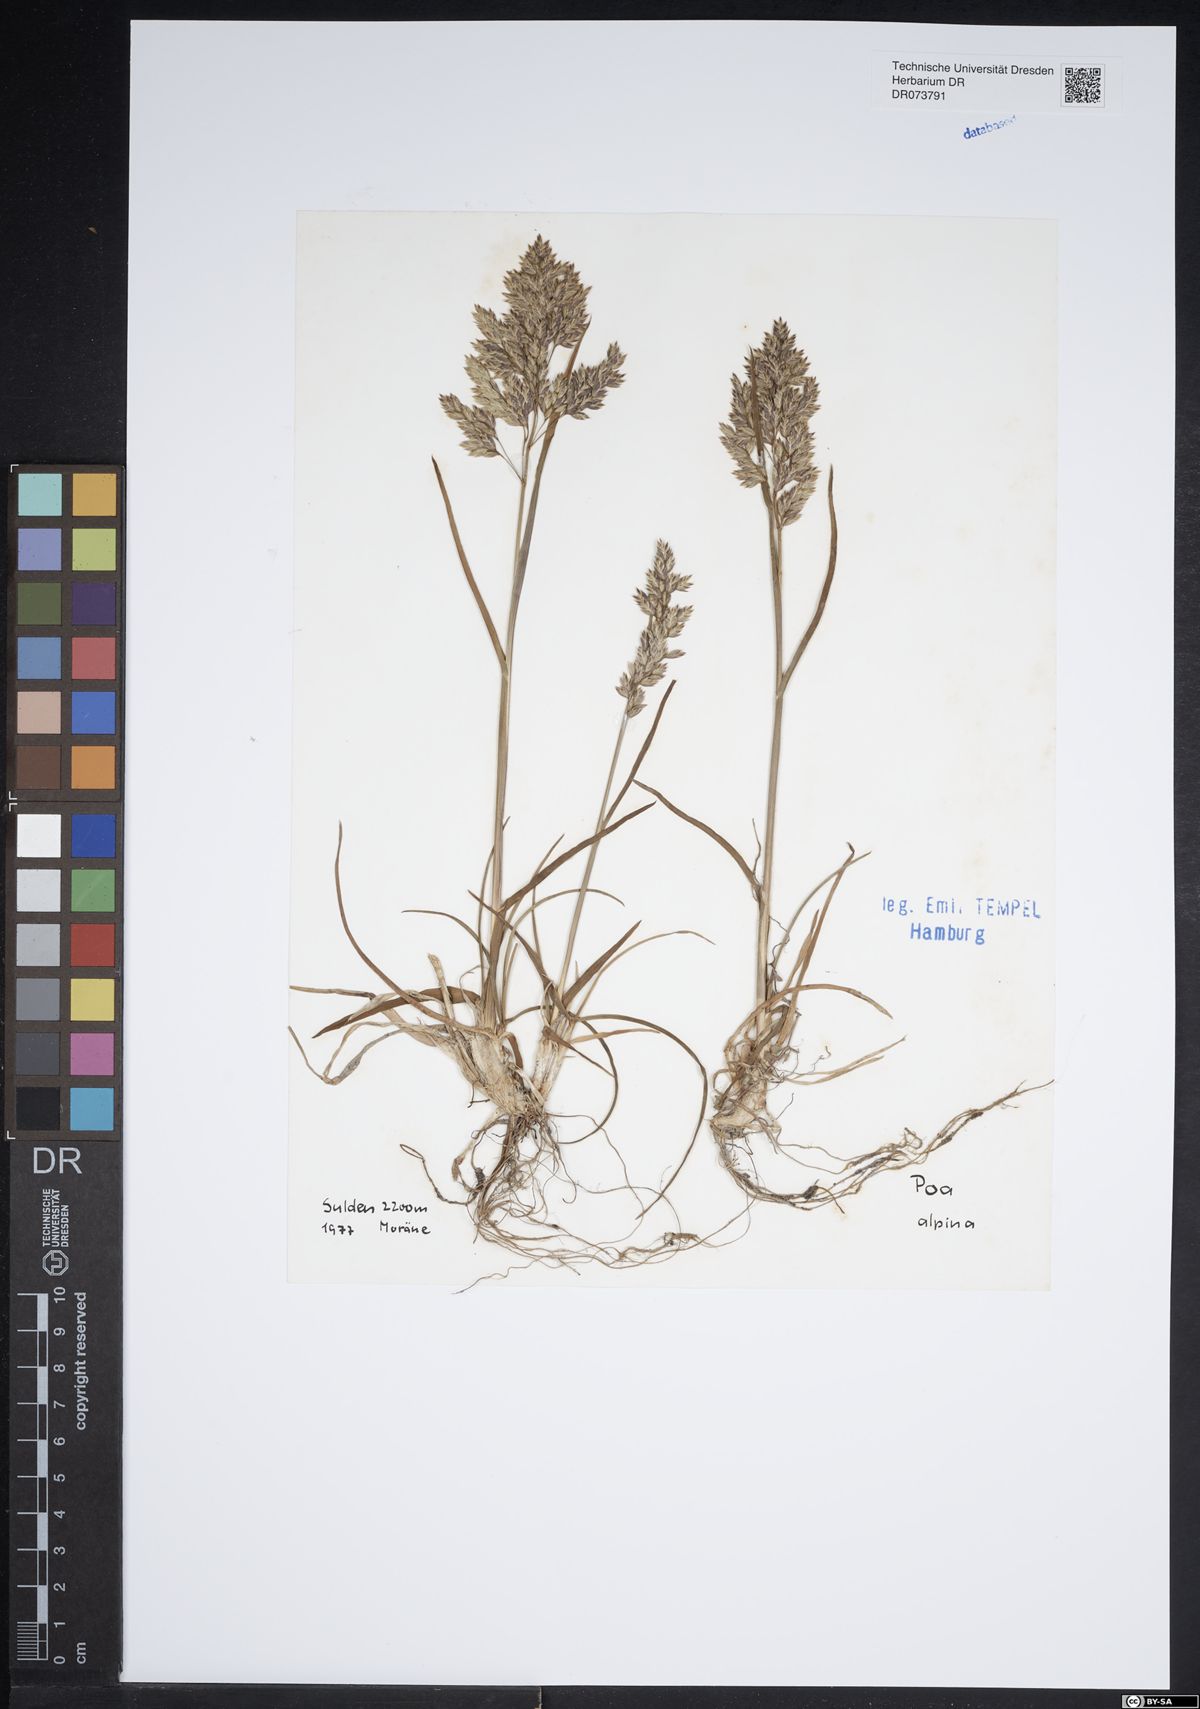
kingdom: Plantae
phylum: Tracheophyta
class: Liliopsida
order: Poales
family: Poaceae
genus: Poa
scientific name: Poa alpina
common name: Alpine bluegrass
